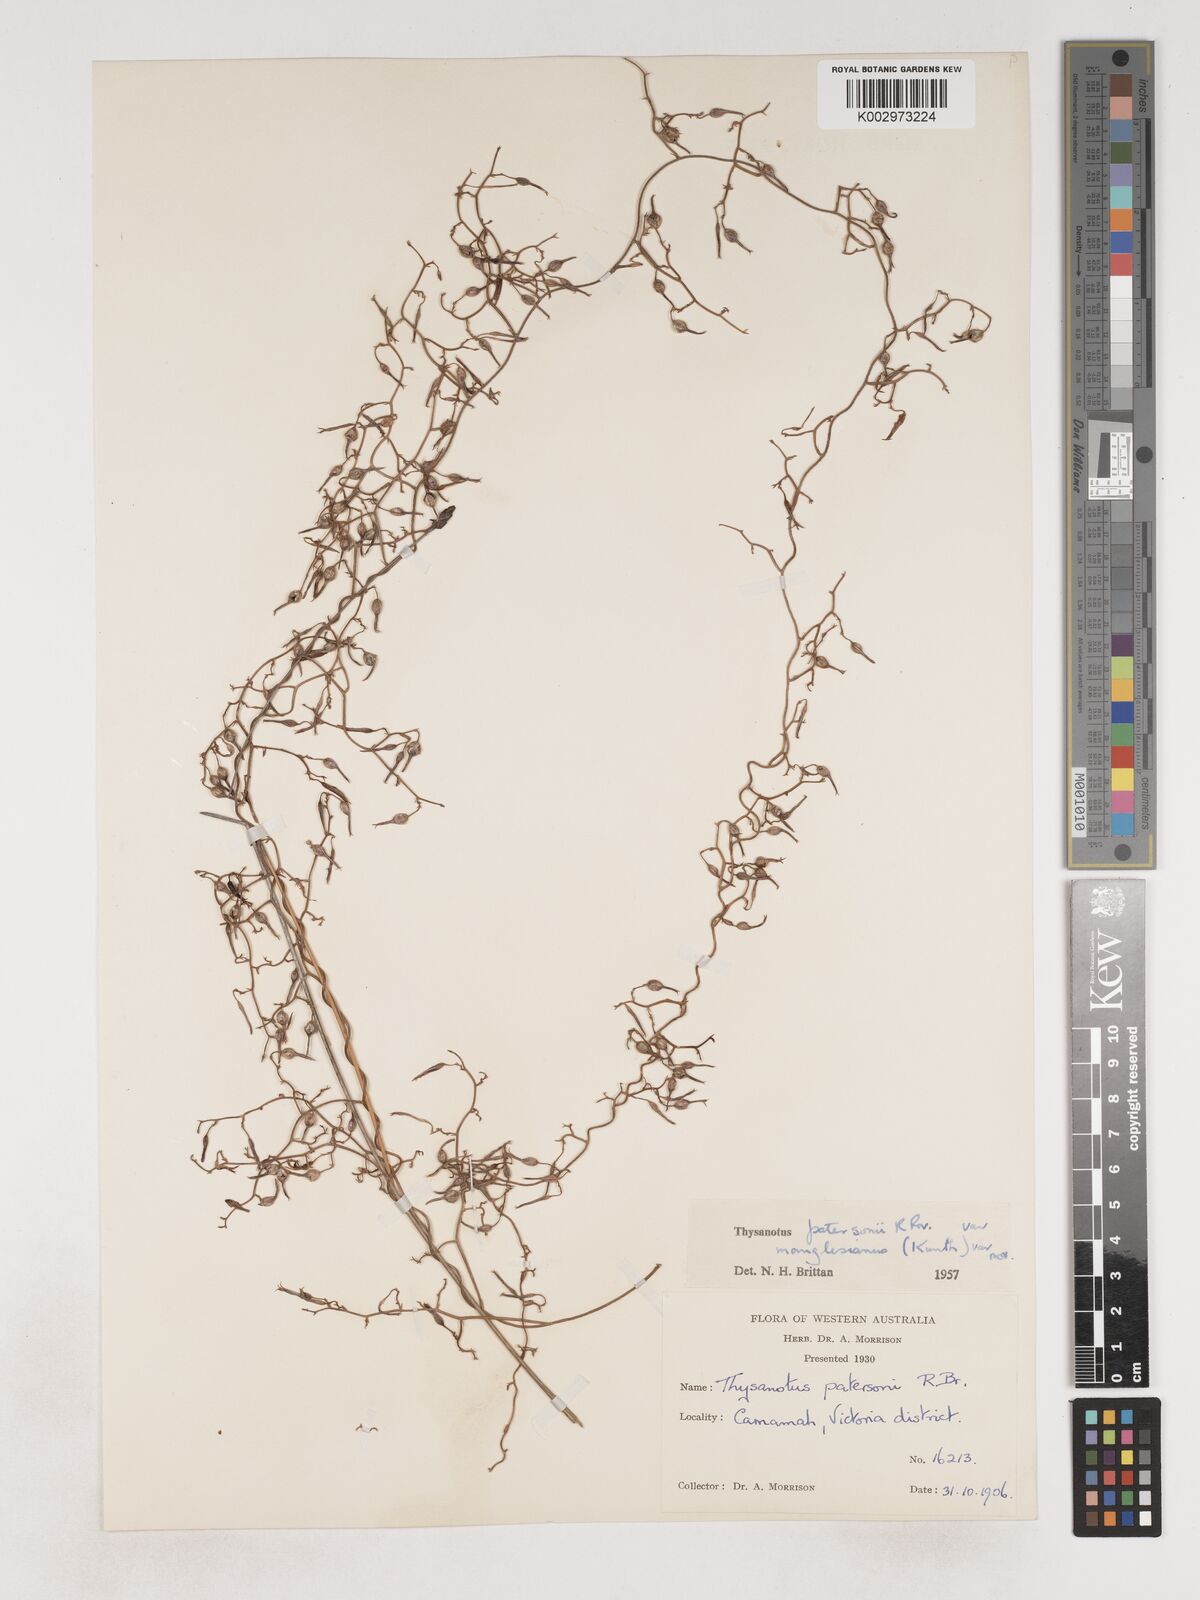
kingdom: Plantae
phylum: Tracheophyta
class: Liliopsida
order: Asparagales
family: Asparagaceae
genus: Thysanotus
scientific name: Thysanotus manglesianus
